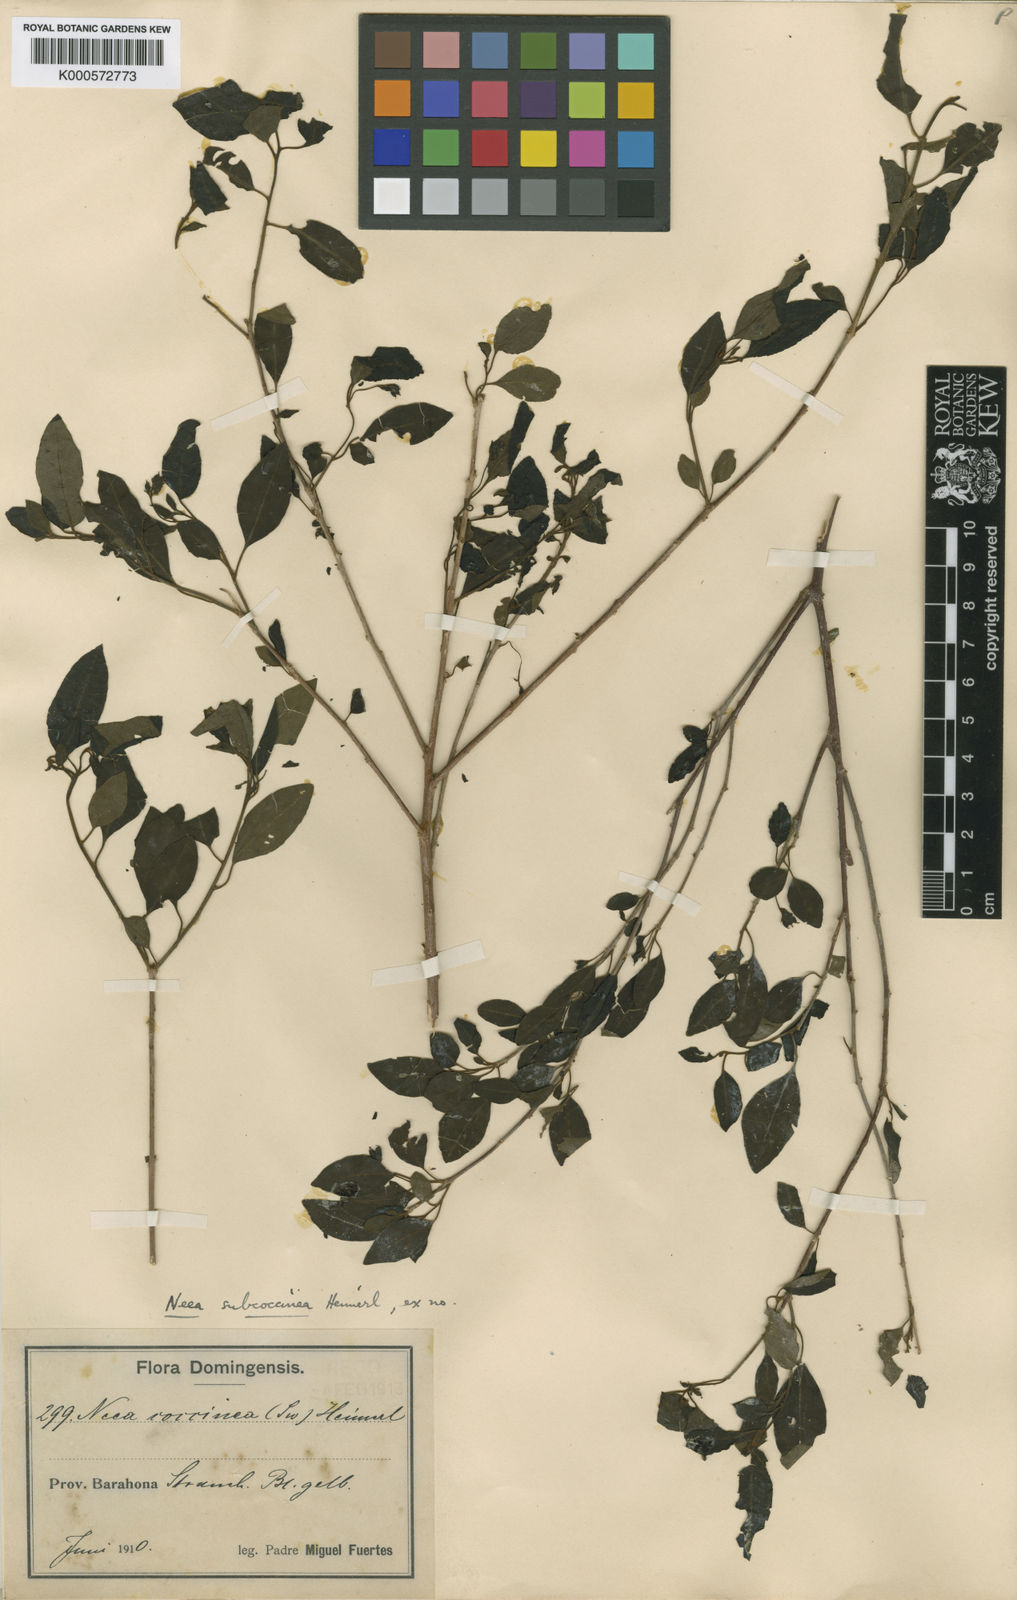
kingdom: Plantae
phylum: Tracheophyta
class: Magnoliopsida
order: Caryophyllales
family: Nyctaginaceae
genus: Neea
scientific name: Neea subcoccinea
